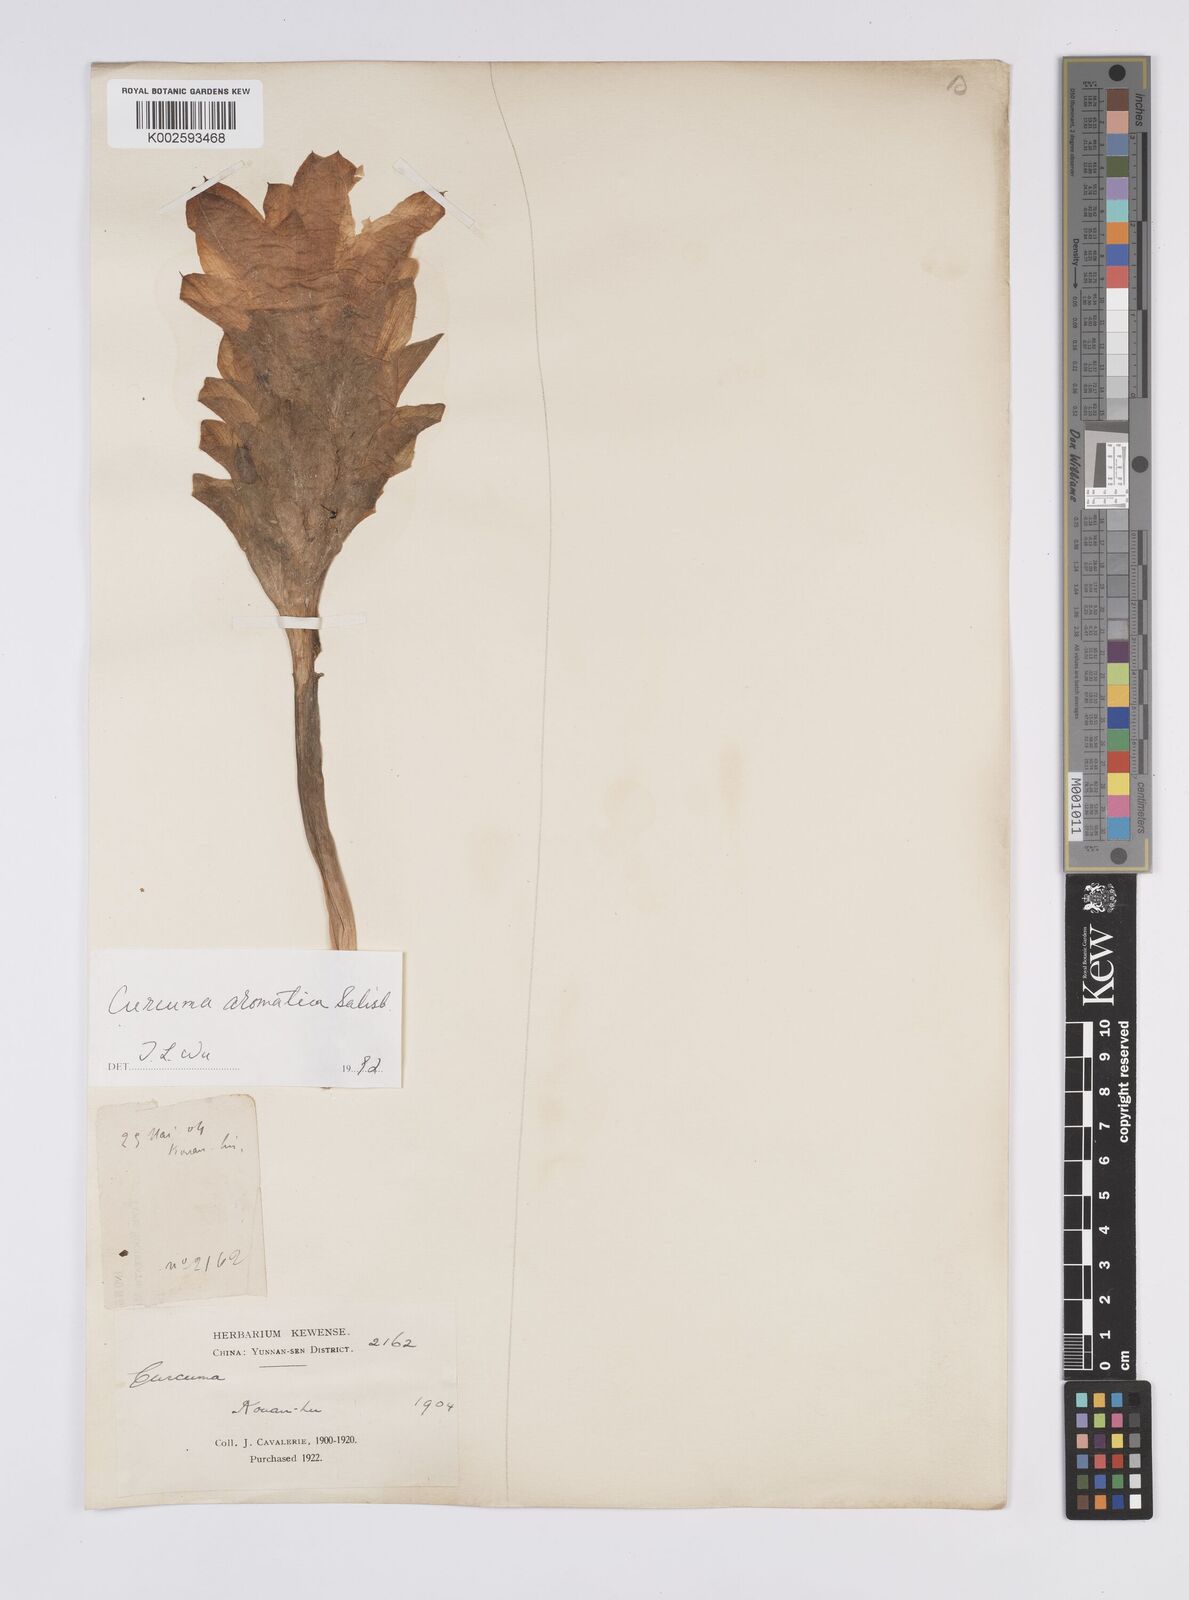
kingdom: Plantae
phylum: Tracheophyta
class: Liliopsida
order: Zingiberales
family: Zingiberaceae
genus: Curcuma
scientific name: Curcuma aromatica
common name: Wild turmeric
